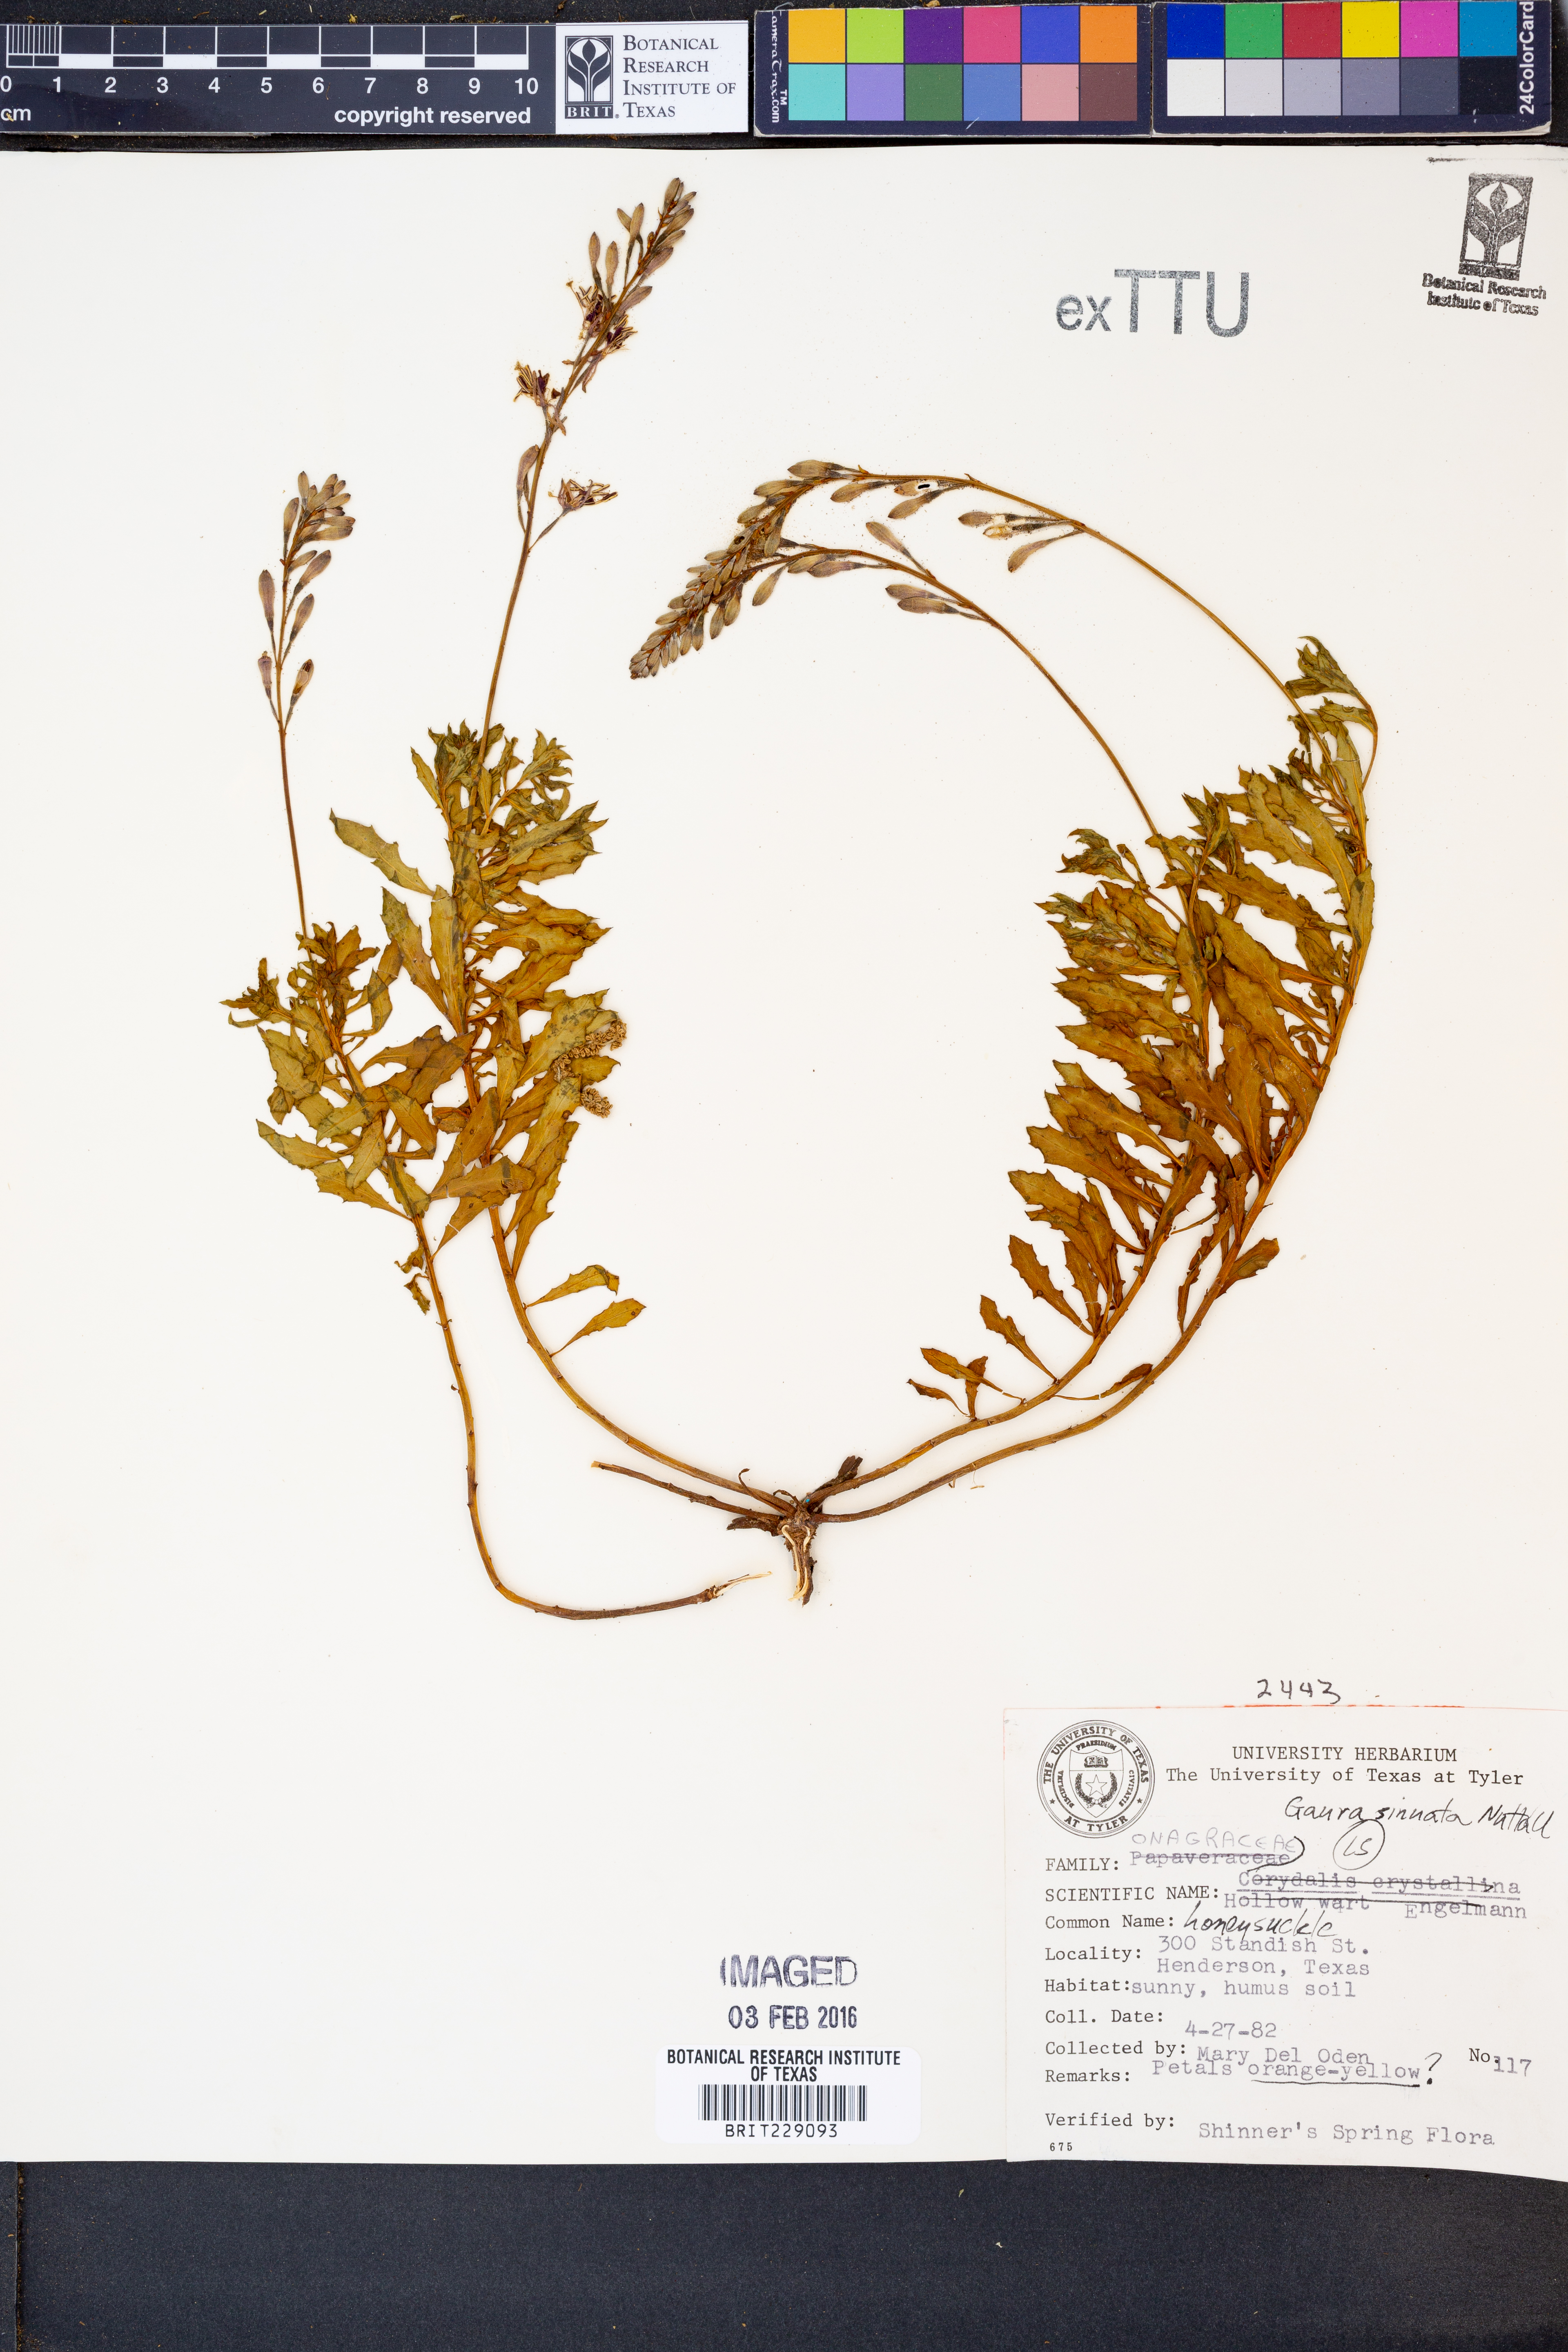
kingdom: Plantae
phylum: Tracheophyta
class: Magnoliopsida
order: Myrtales
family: Onagraceae
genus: Oenothera
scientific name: Oenothera sinuosa
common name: Wavyleaf beeblossom
